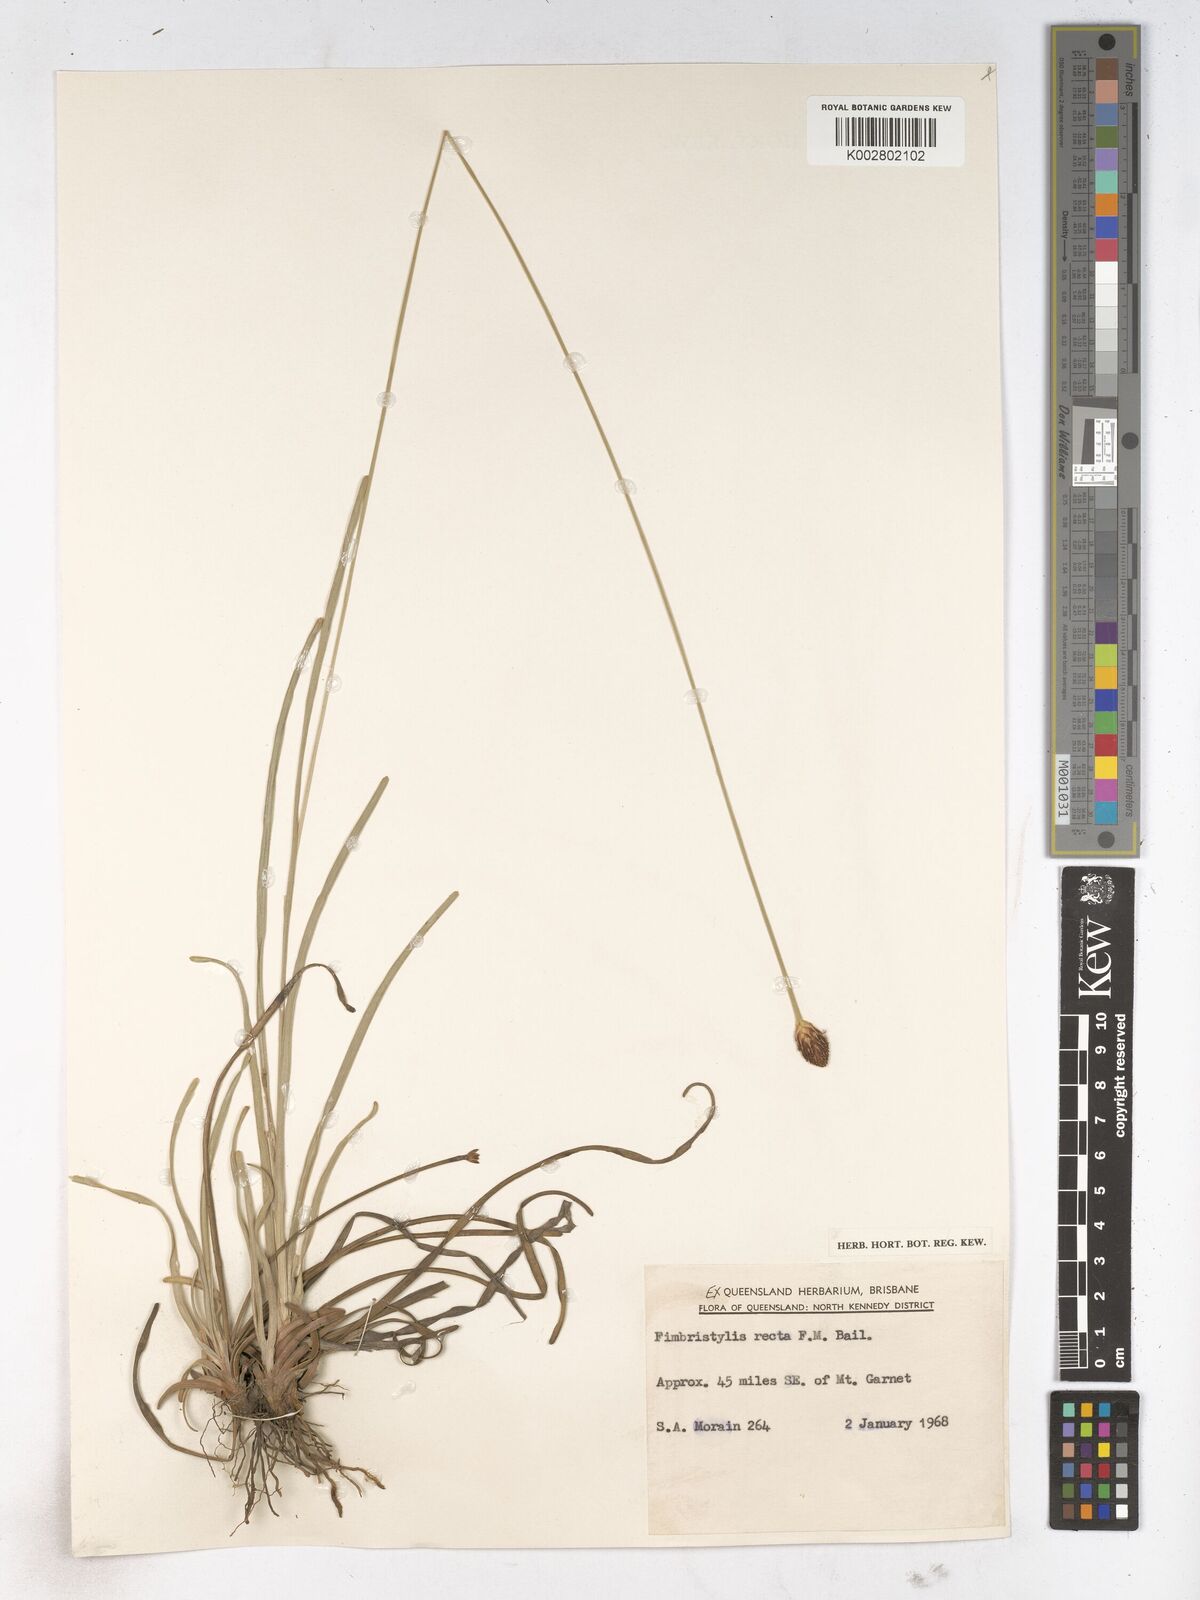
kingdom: Plantae
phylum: Tracheophyta
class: Liliopsida
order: Poales
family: Cyperaceae
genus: Fimbristylis
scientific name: Fimbristylis recta
